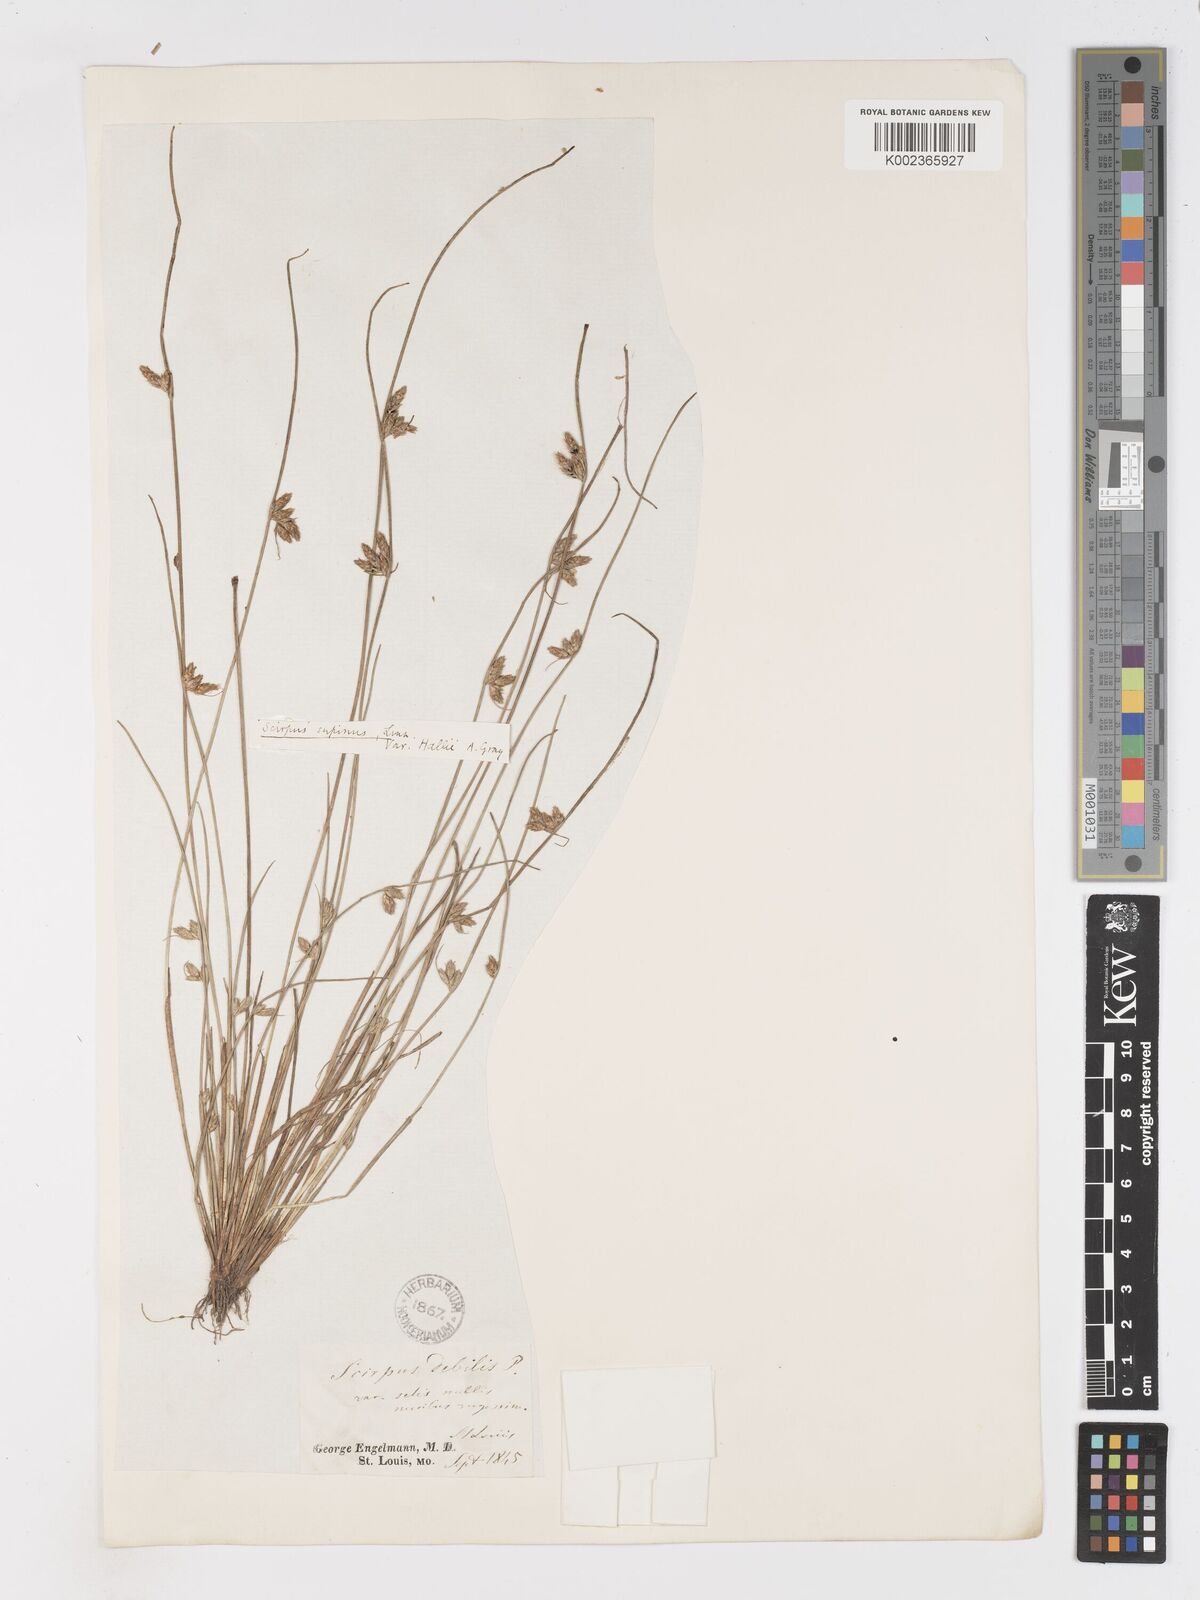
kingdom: Plantae
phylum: Tracheophyta
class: Liliopsida
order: Poales
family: Cyperaceae
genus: Schoenoplectiella
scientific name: Schoenoplectiella hallii
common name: Hall's bullrush
